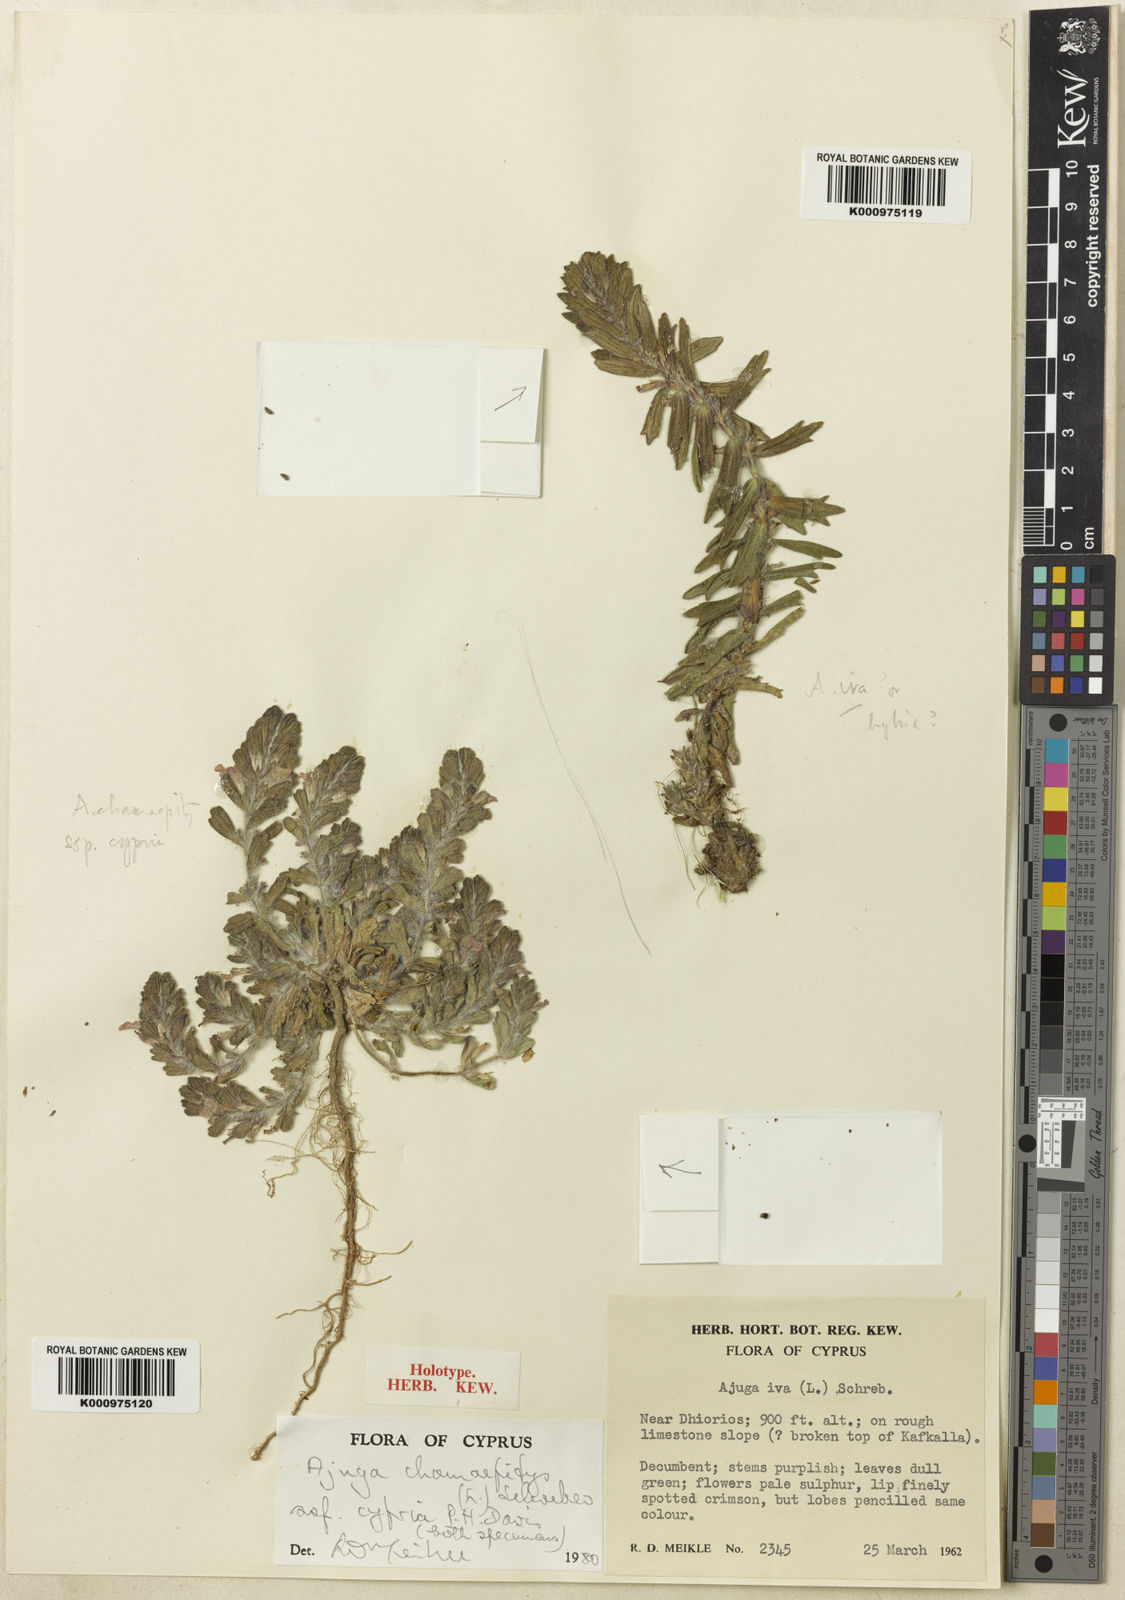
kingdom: Plantae
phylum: Tracheophyta
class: Magnoliopsida
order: Lamiales
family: Lamiaceae
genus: Ajuga
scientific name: Ajuga chamaepitys
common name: Ground-pine
